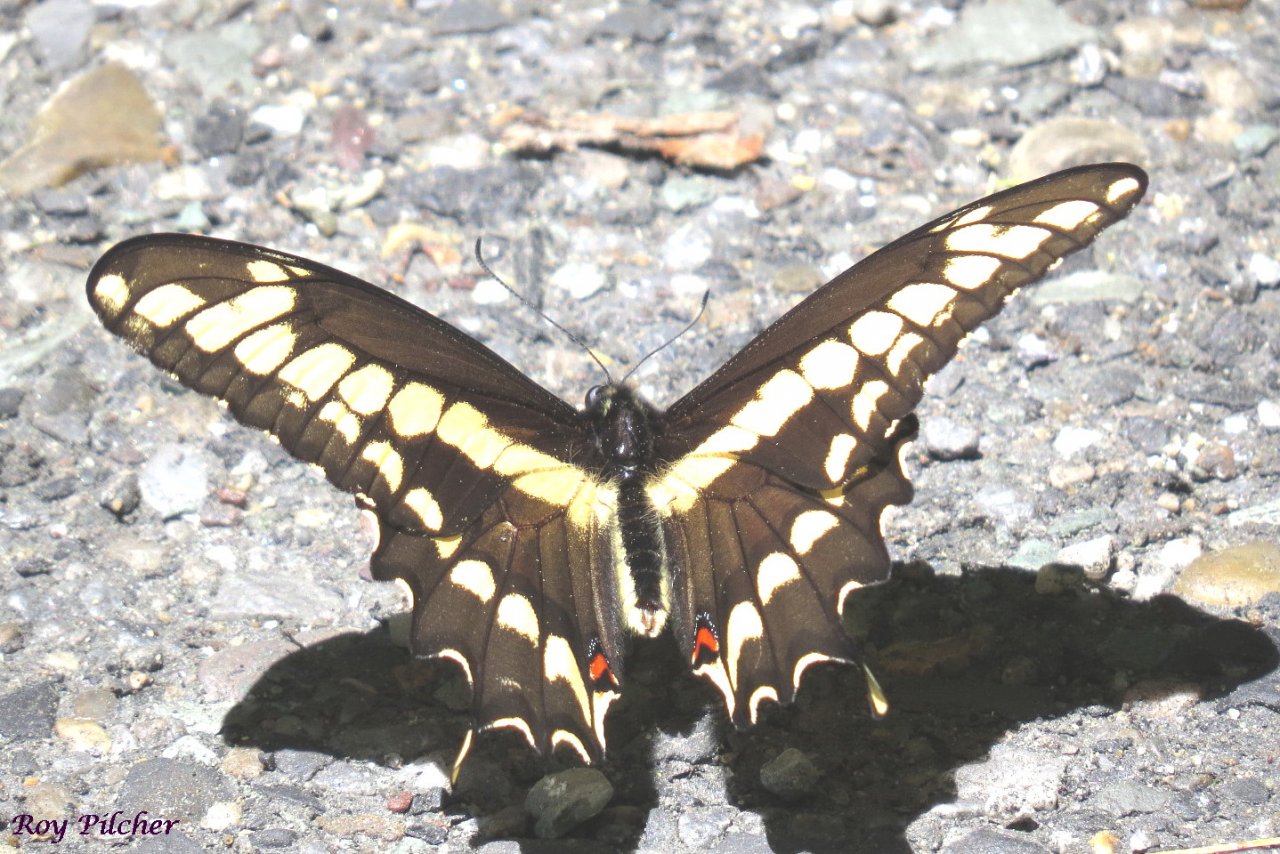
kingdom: Animalia
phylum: Arthropoda
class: Insecta
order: Lepidoptera
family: Papilionidae
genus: Papilio
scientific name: Papilio cresphontes
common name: Eastern Giant Swallowtail
